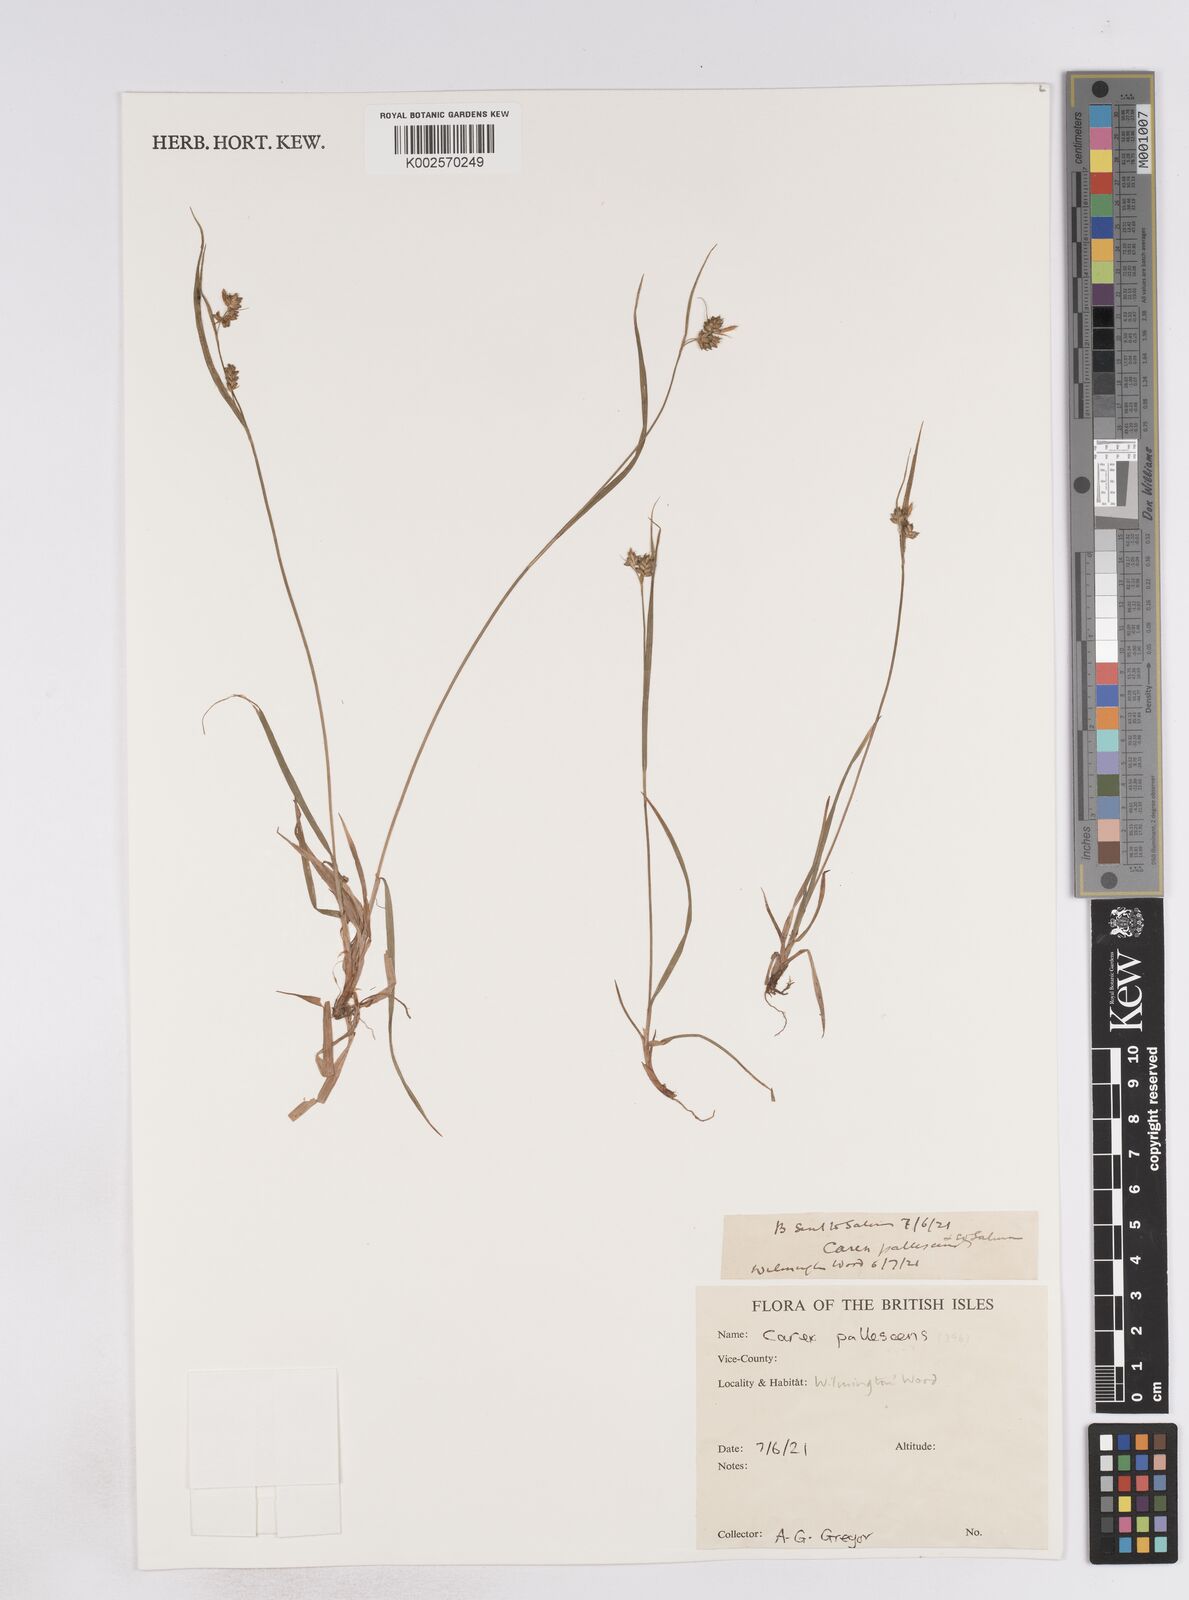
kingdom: Plantae
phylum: Tracheophyta
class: Liliopsida
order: Poales
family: Cyperaceae
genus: Carex
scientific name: Carex pallescens
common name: Pale sedge
